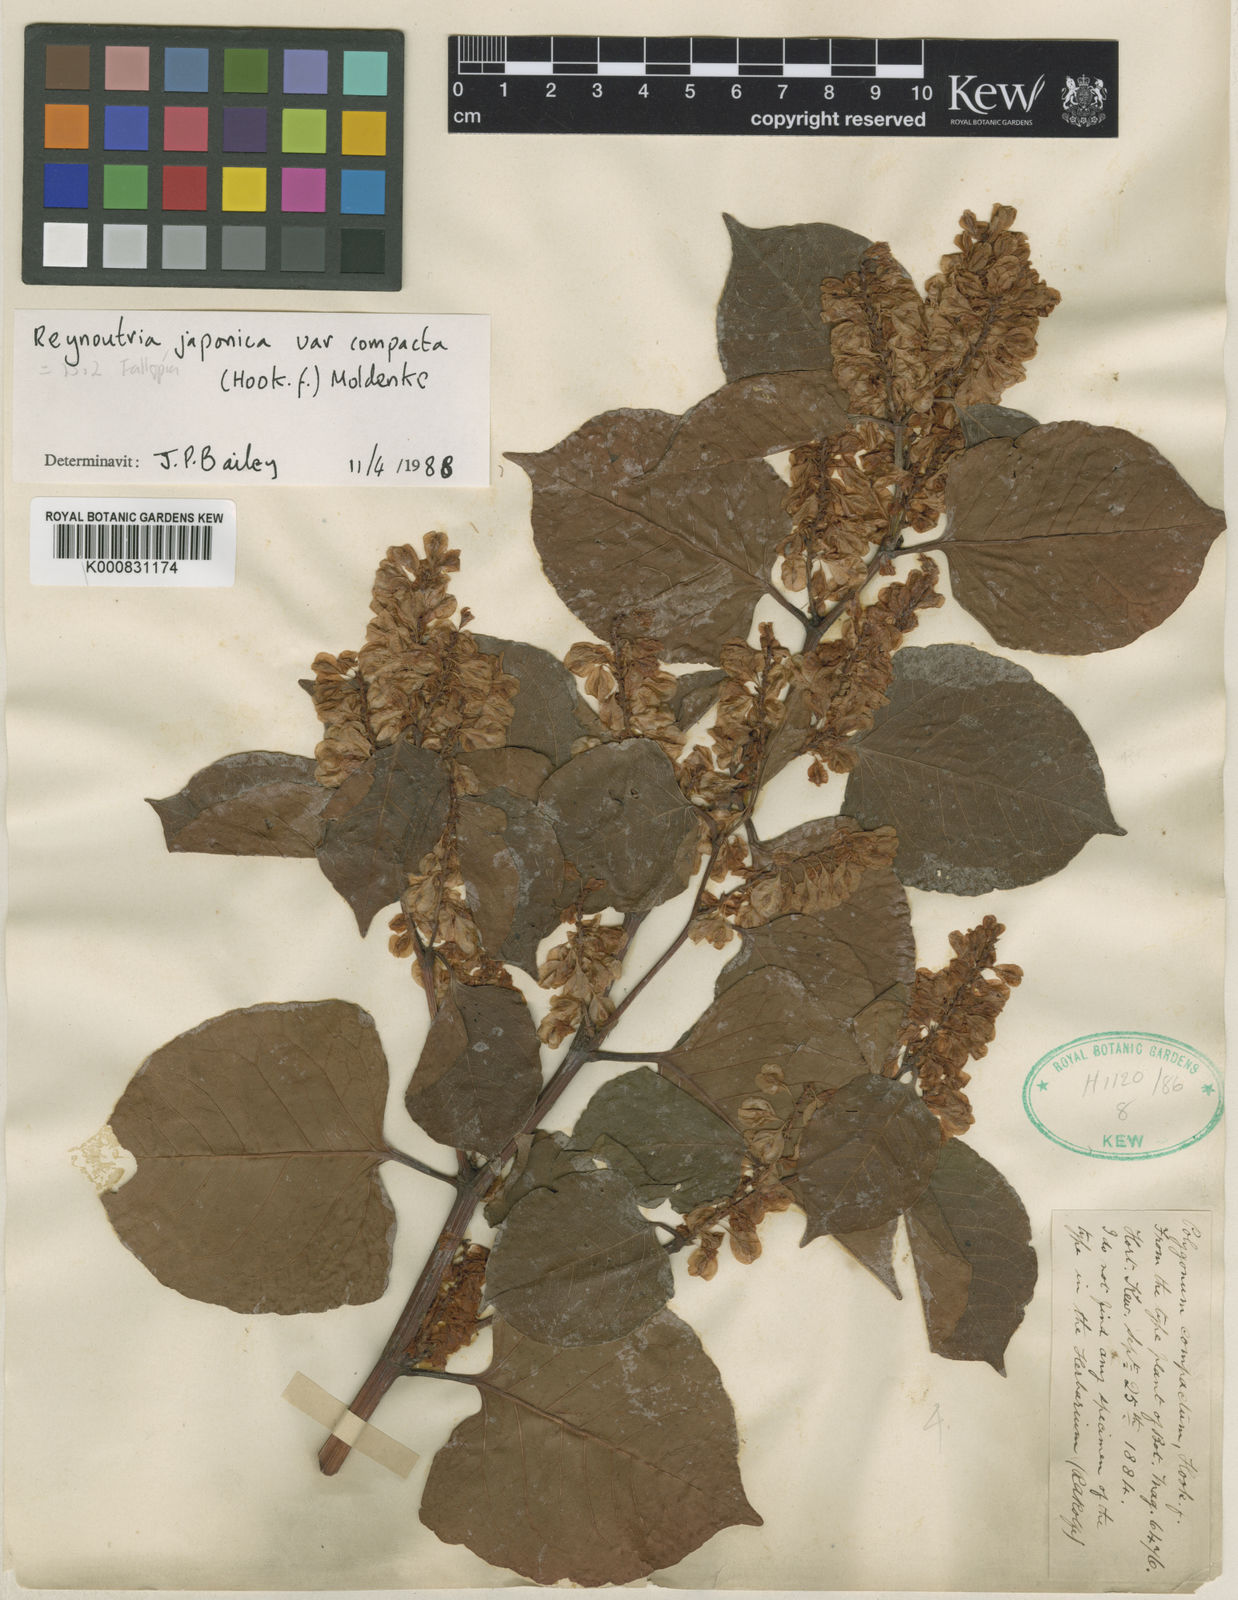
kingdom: Plantae
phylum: Tracheophyta
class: Magnoliopsida
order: Caryophyllales
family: Polygonaceae
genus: Reynoutria
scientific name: Reynoutria japonica
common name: Japanese knotweed
